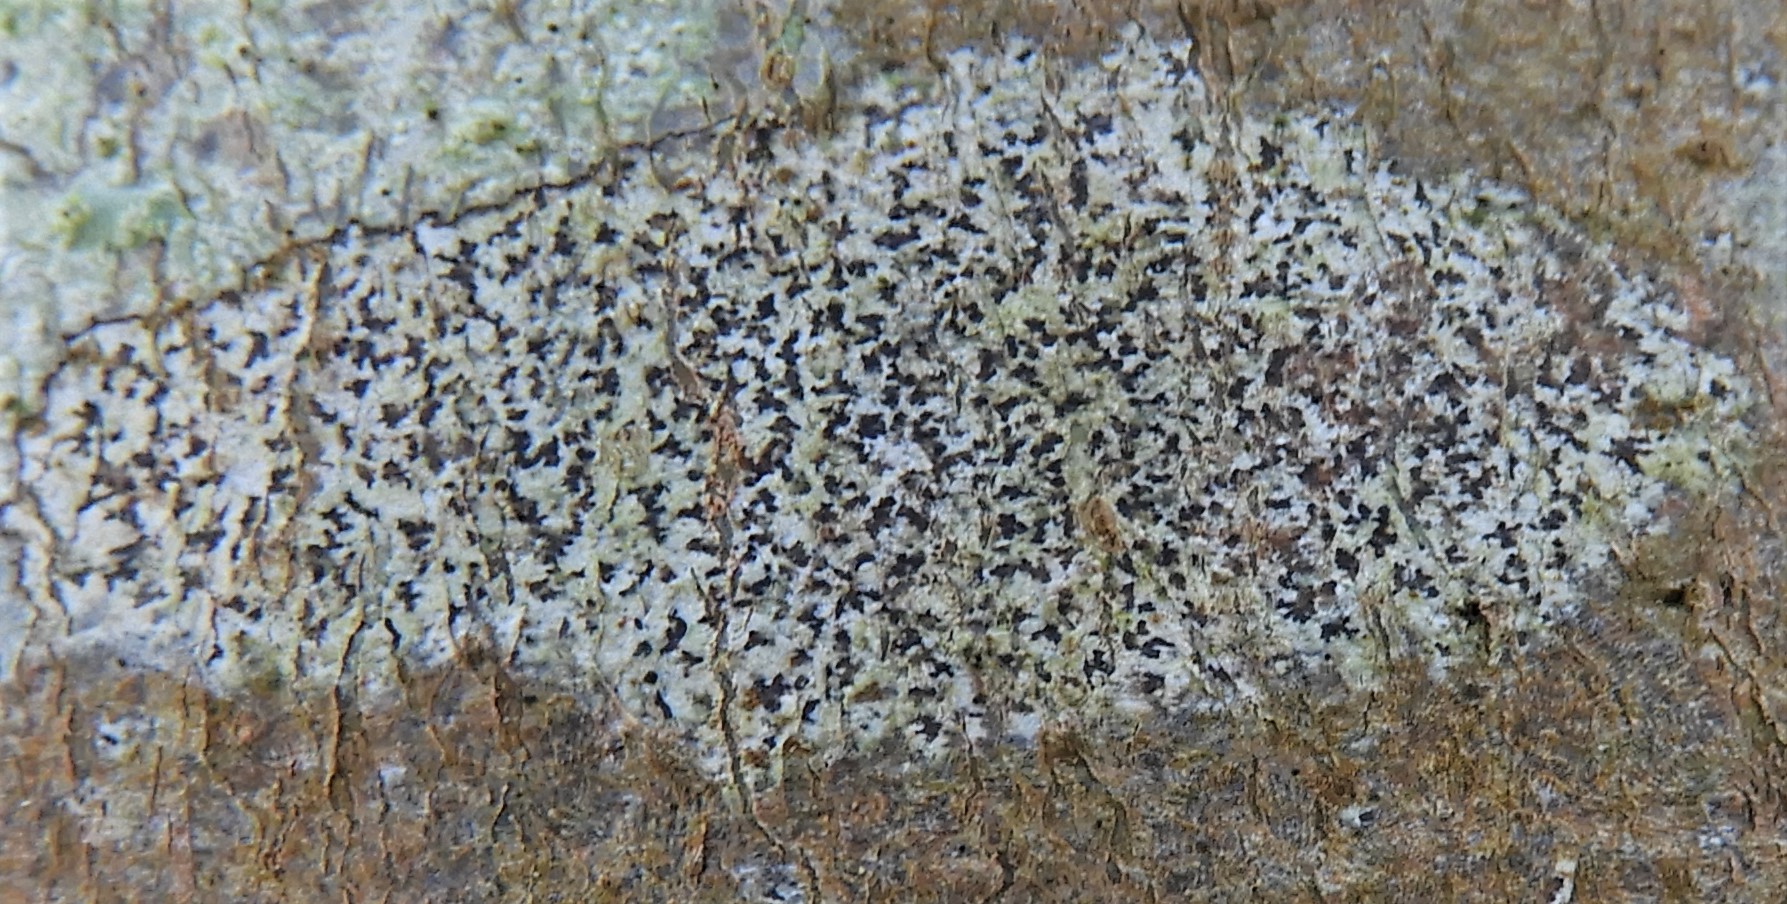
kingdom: Fungi
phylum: Ascomycota
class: Arthoniomycetes
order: Arthoniales
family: Arthoniaceae
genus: Arthonia
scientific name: Arthonia radiata
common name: stjerne-pletlav
